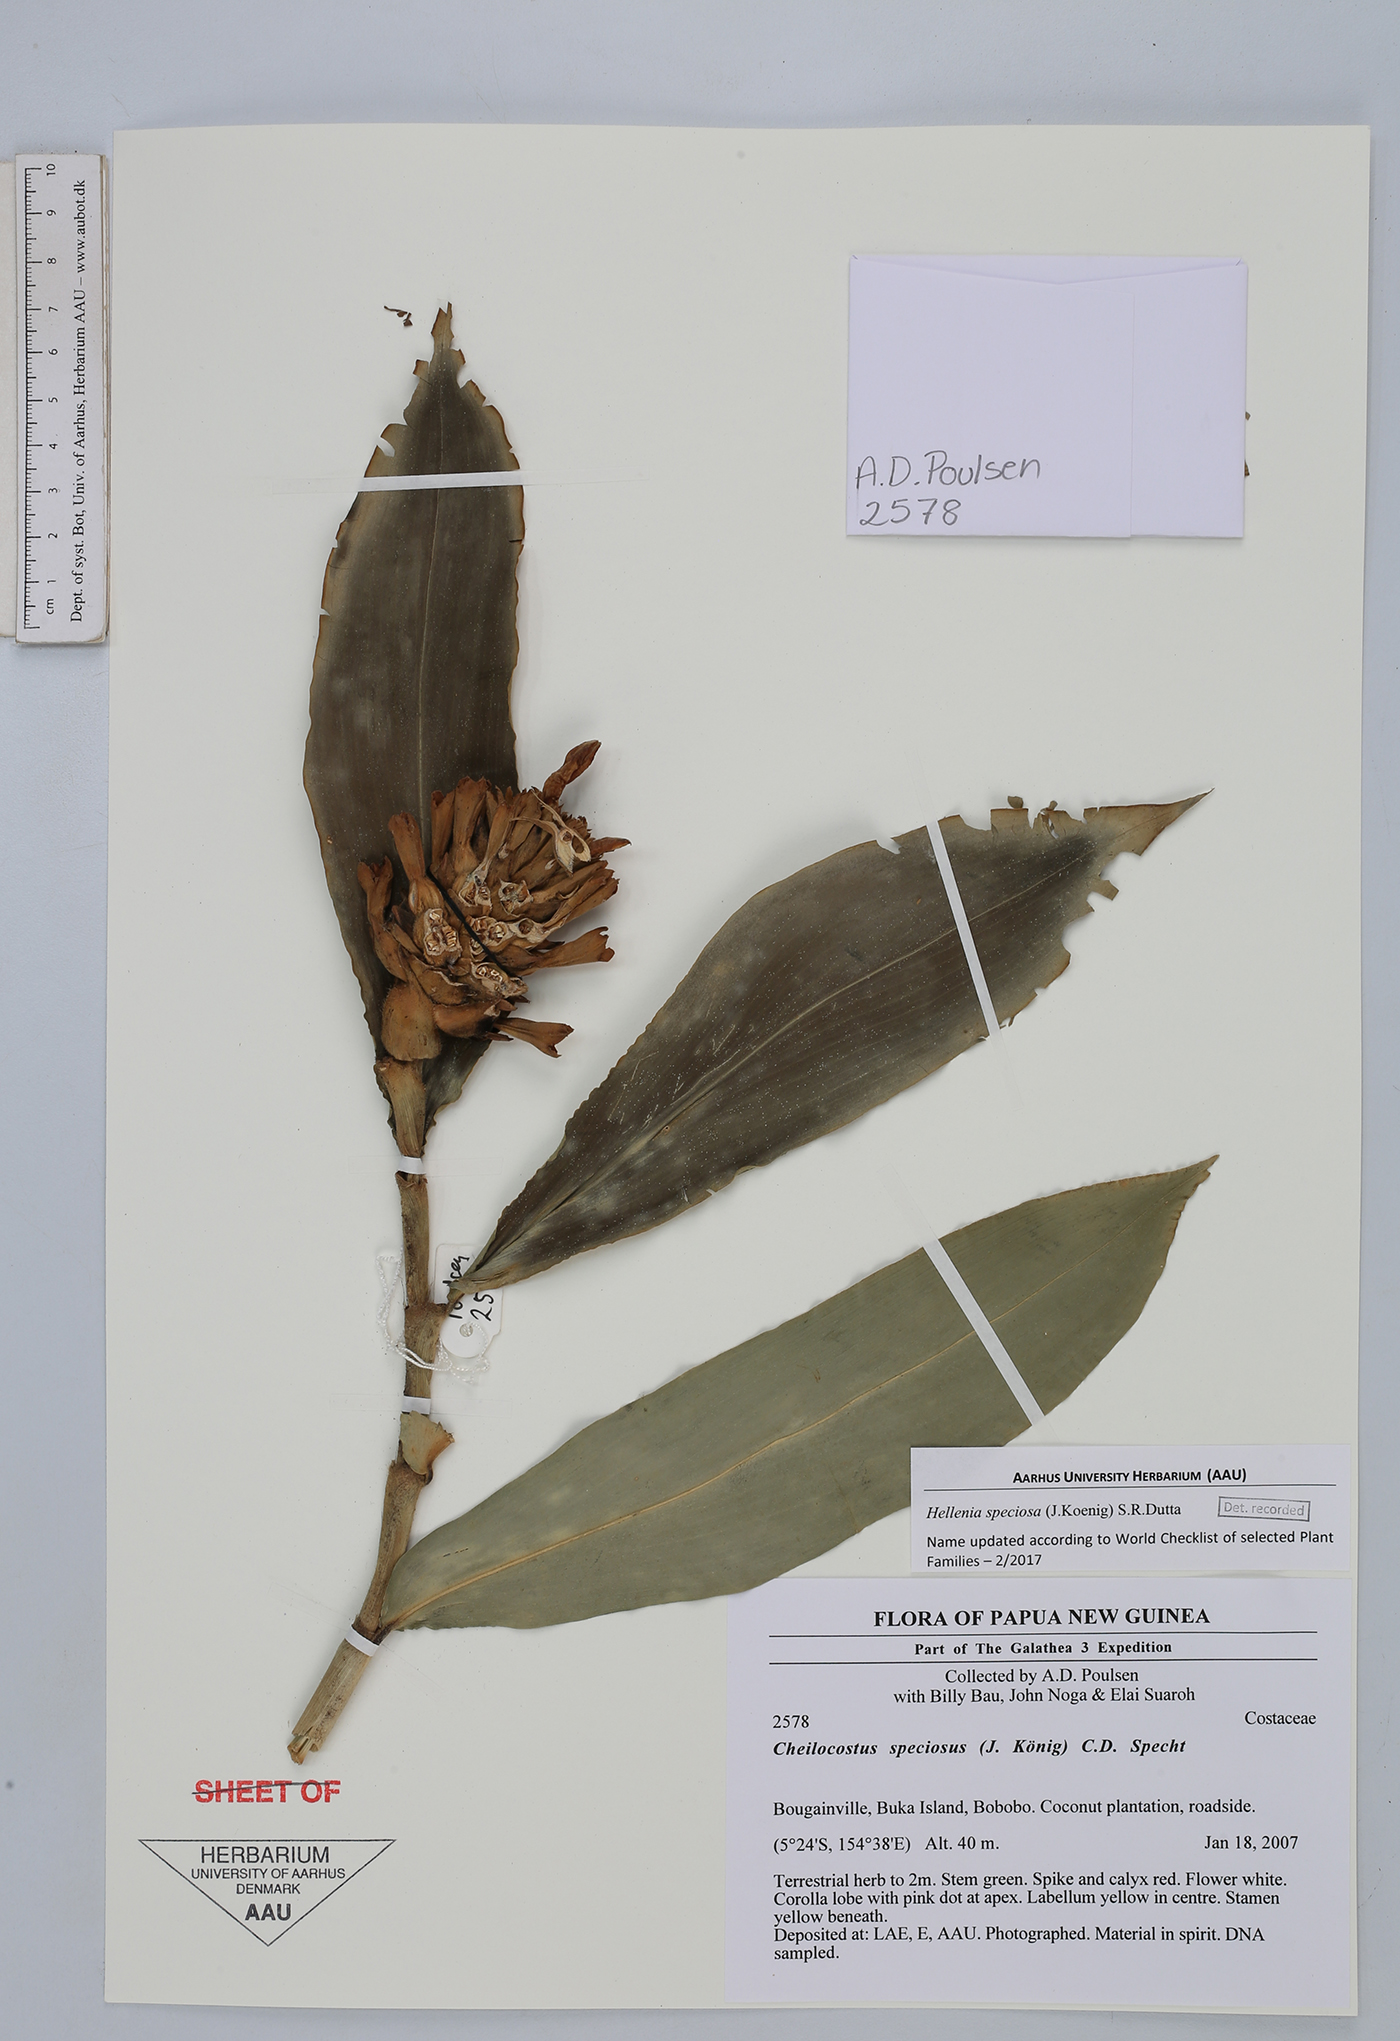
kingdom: Plantae
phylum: Tracheophyta
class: Liliopsida
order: Zingiberales
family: Costaceae
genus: Hellenia
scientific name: Hellenia speciosa
